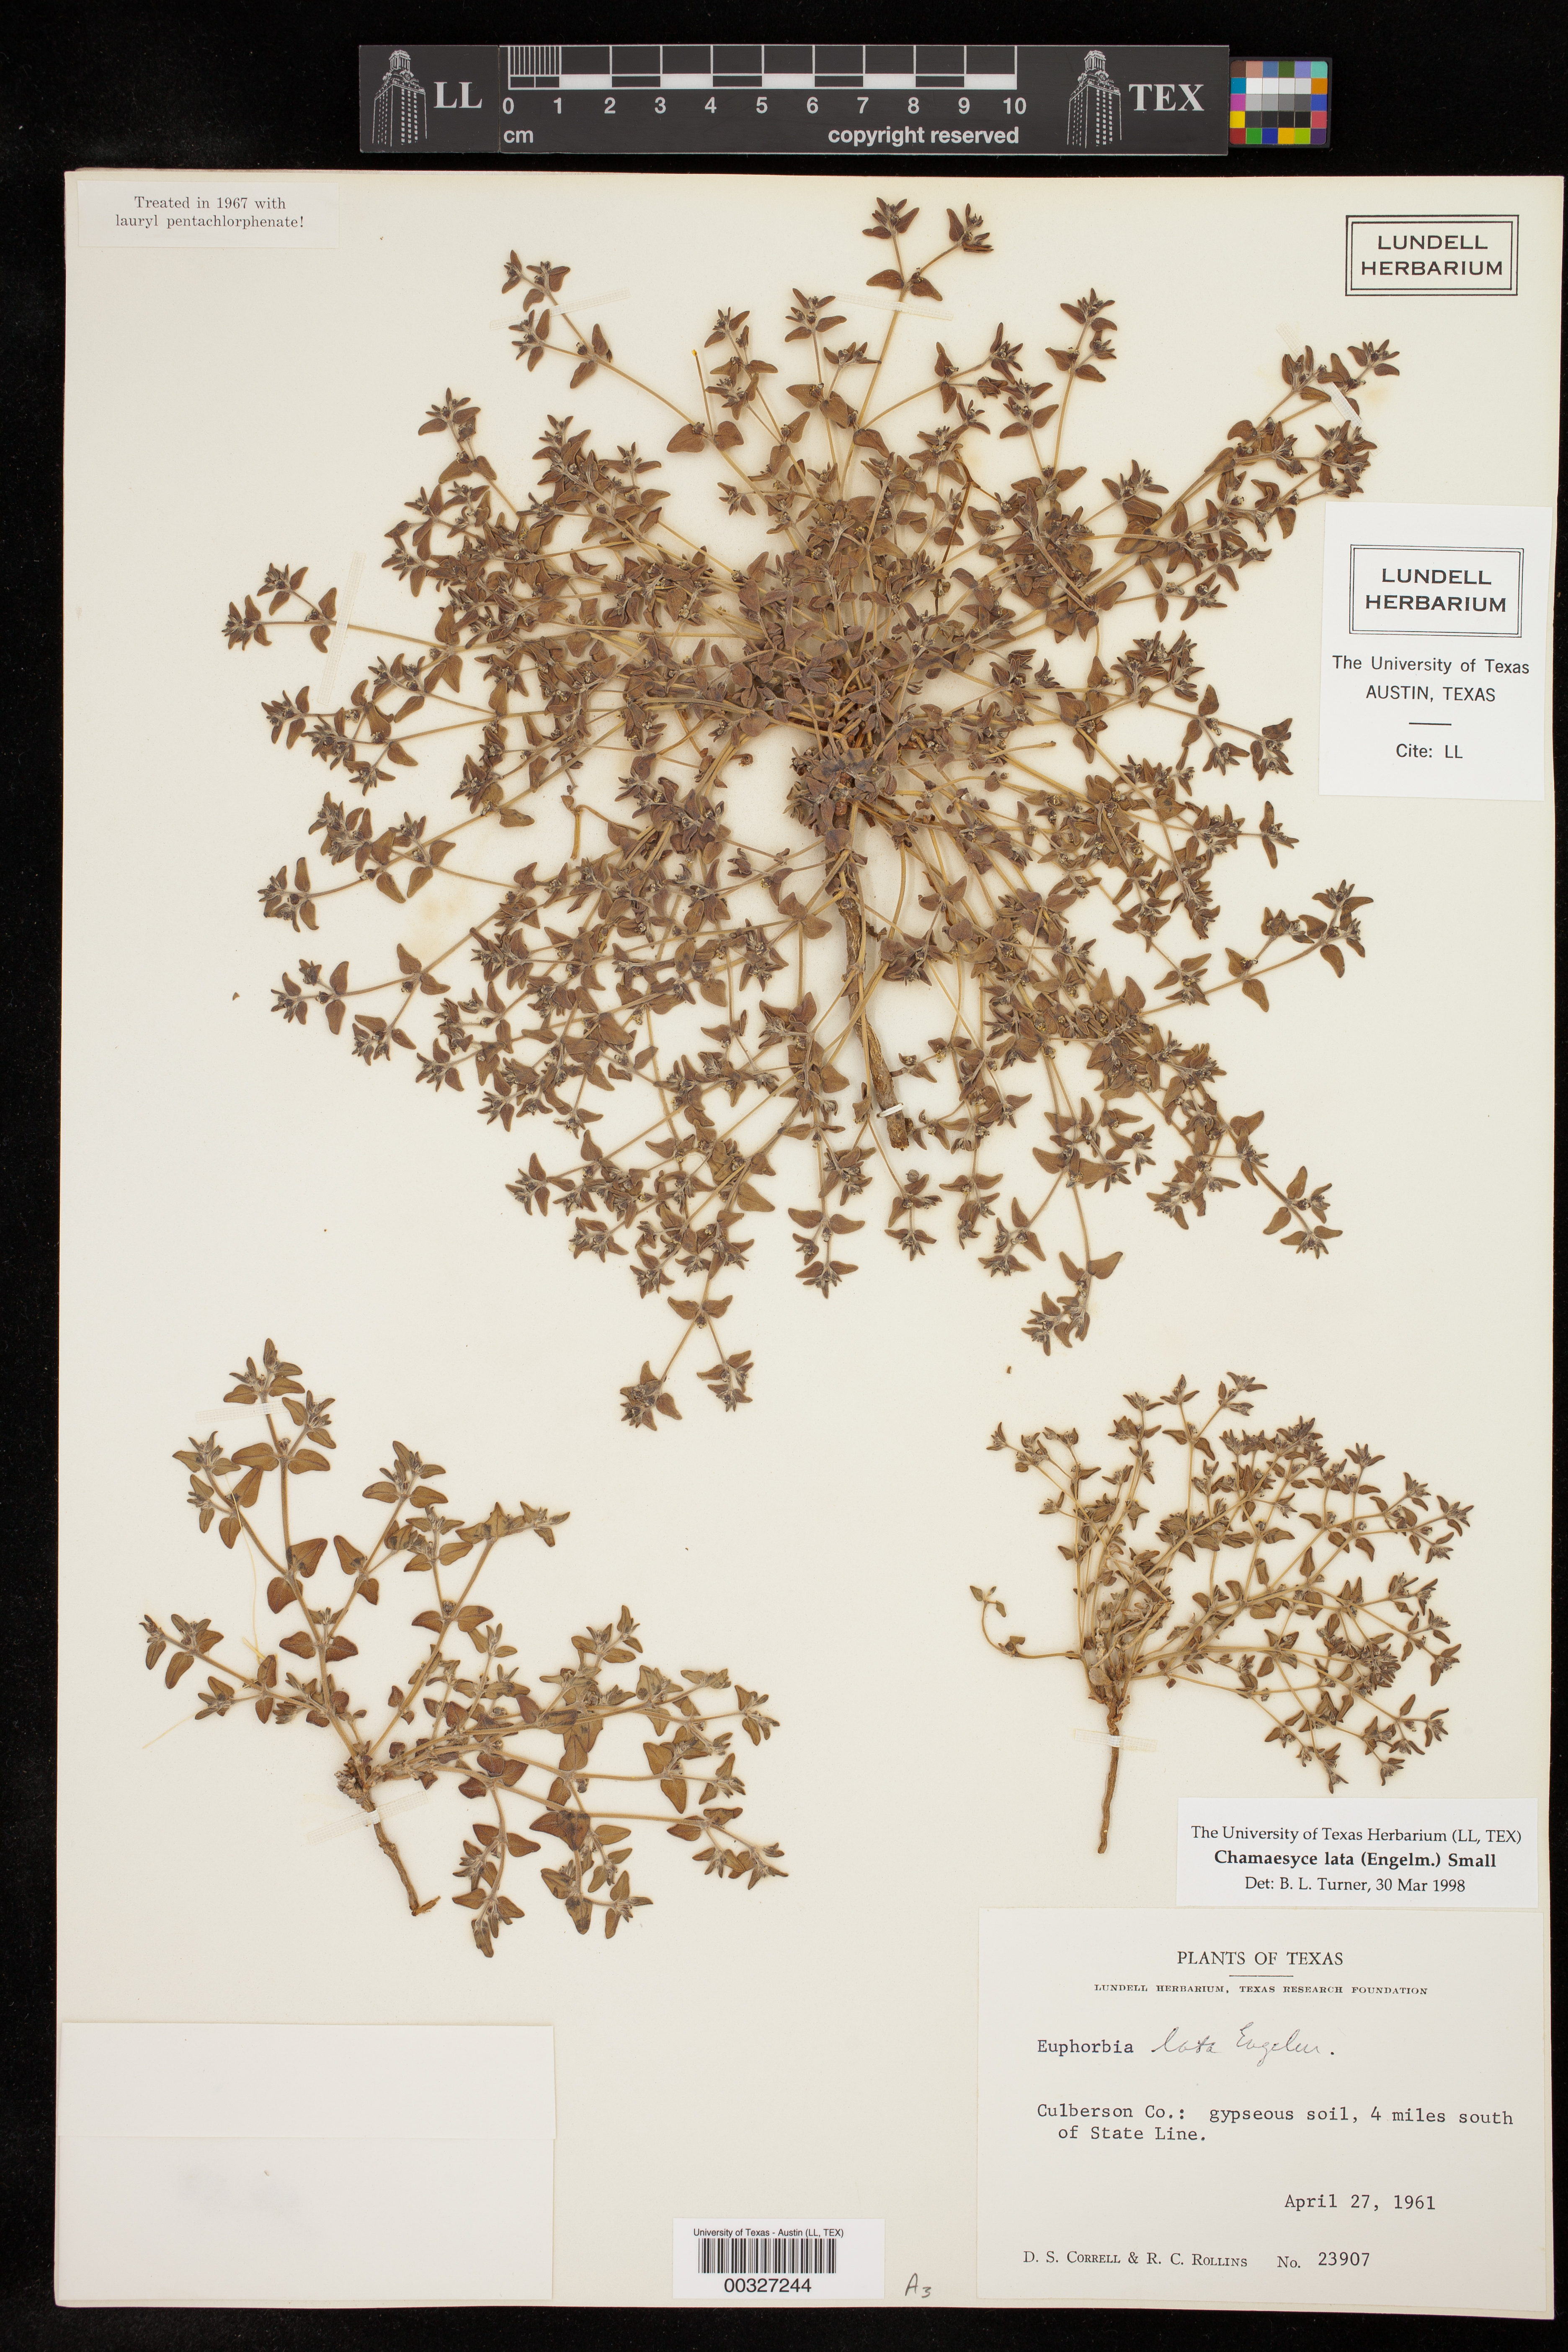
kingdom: Plantae
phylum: Tracheophyta
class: Magnoliopsida
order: Malpighiales
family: Euphorbiaceae
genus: Euphorbia
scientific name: Euphorbia lata
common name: Hoary euphorbia
